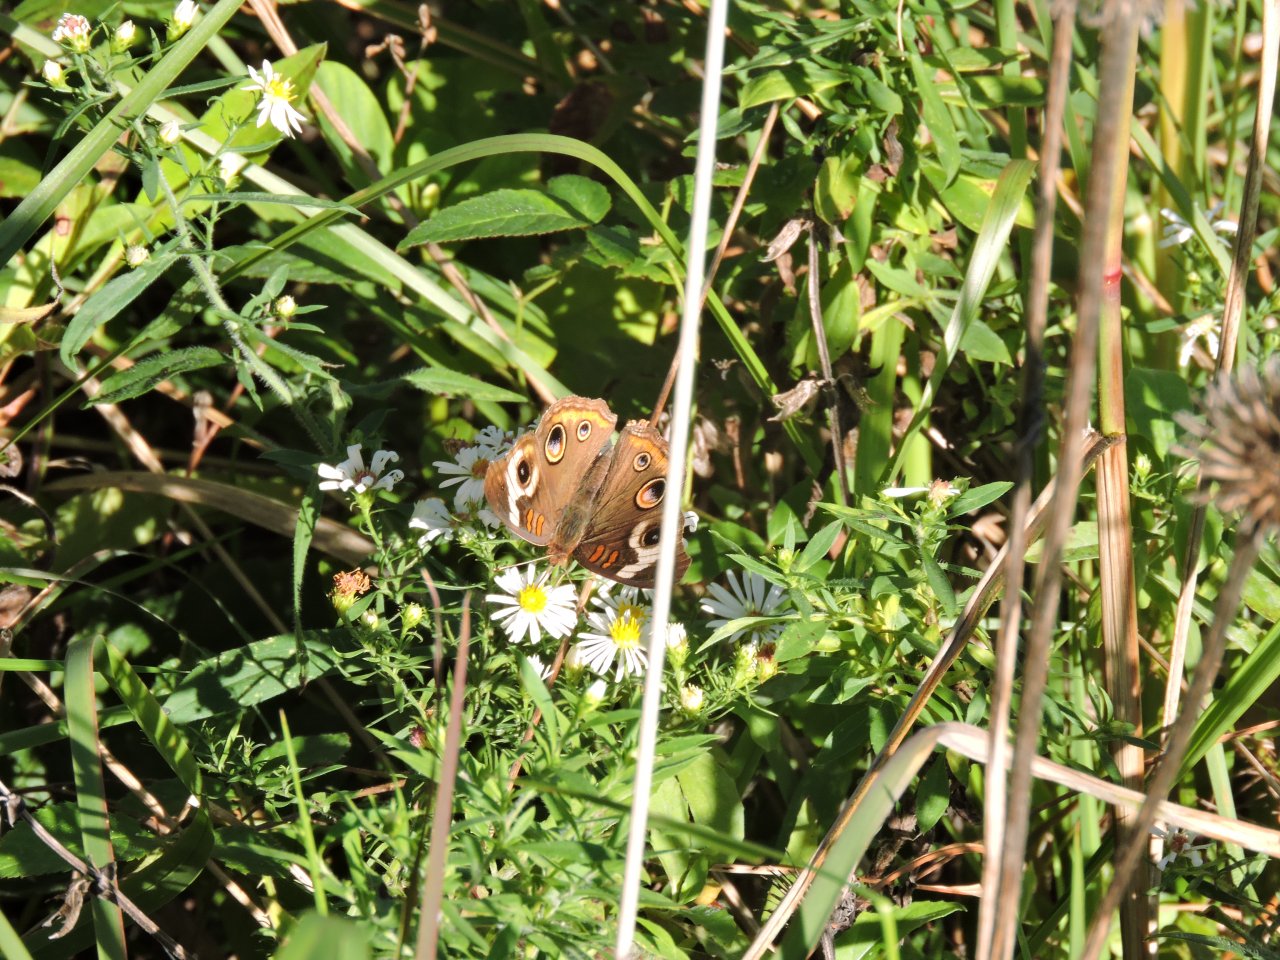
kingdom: Animalia
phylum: Arthropoda
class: Insecta
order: Lepidoptera
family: Nymphalidae
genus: Junonia
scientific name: Junonia coenia
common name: Common Buckeye
